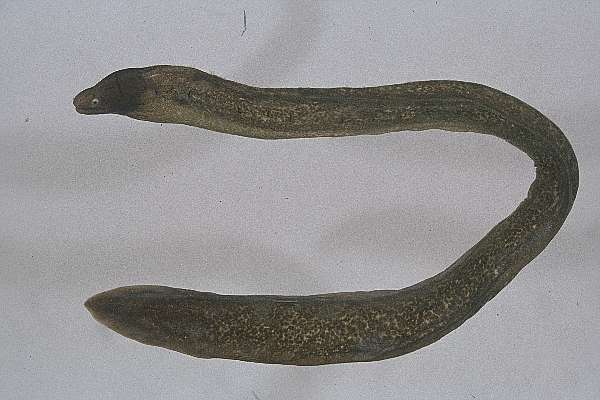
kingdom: Animalia
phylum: Chordata
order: Anguilliformes
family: Muraenidae
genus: Gymnothorax
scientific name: Gymnothorax griseus
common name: Geometric moray
